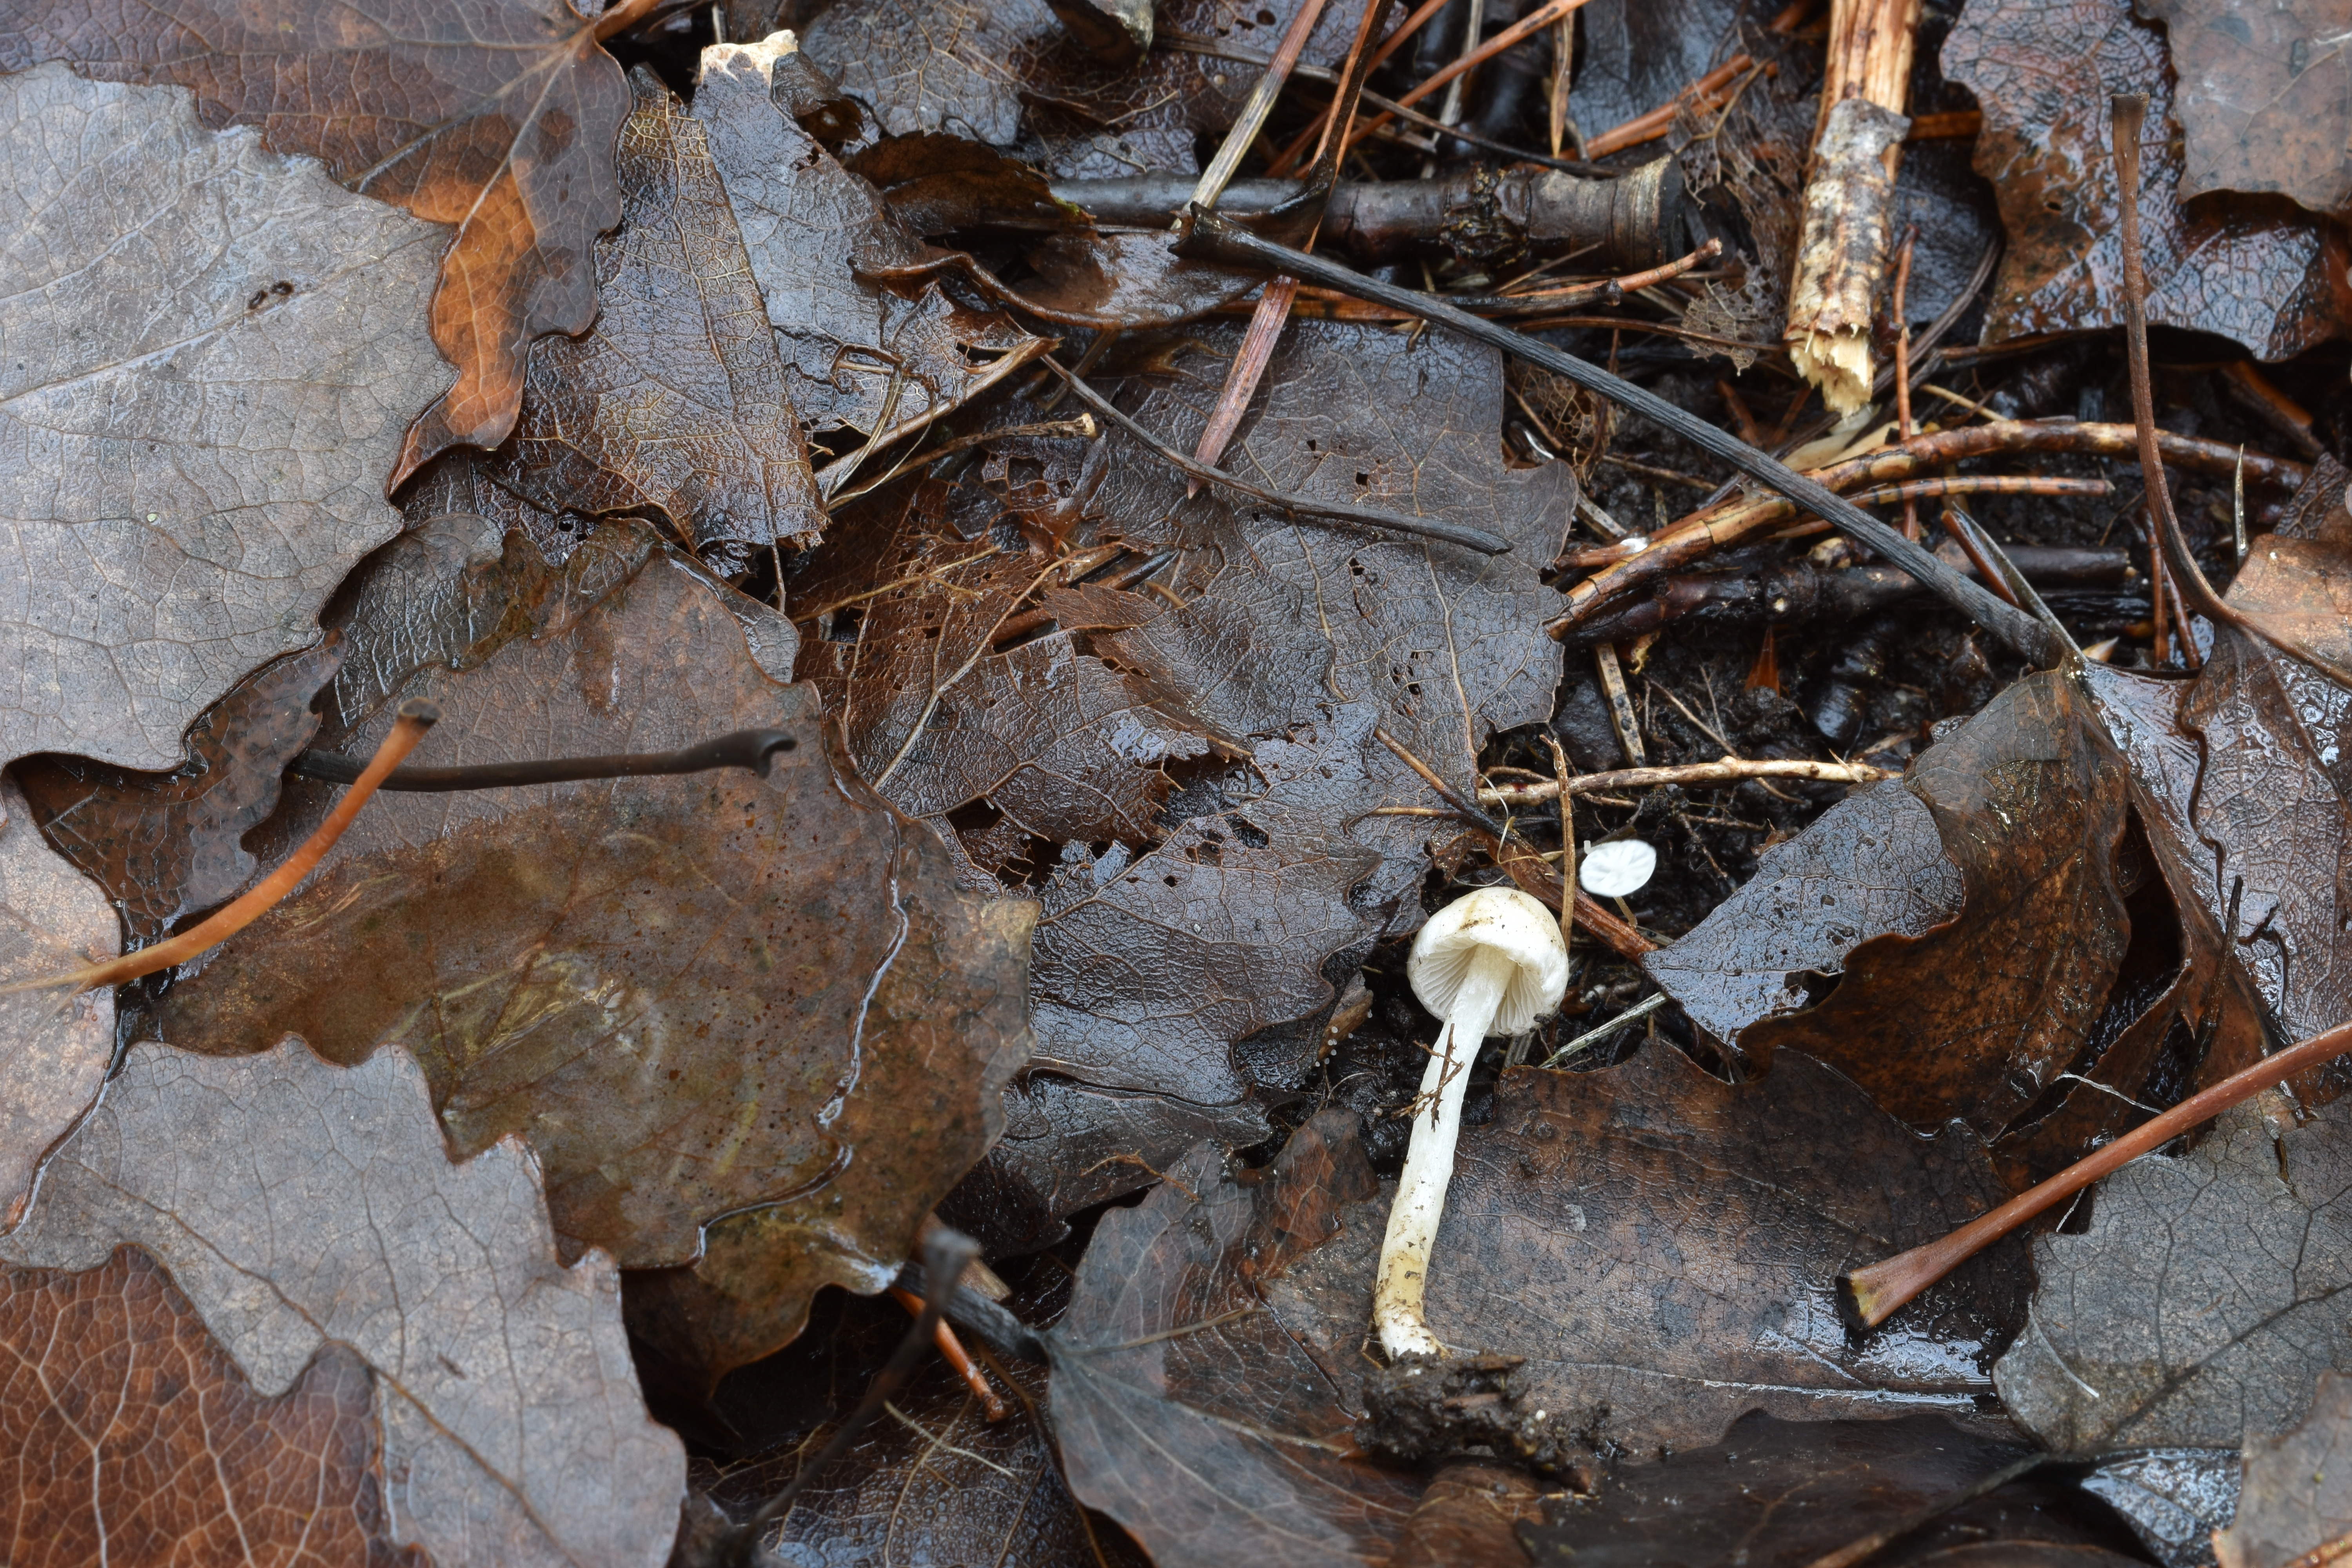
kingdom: Fungi
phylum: Basidiomycota
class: Agaricomycetes
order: Agaricales
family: Marasmiaceae
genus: Marasmius
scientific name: Marasmius epiphyllus
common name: Leaf parachute
